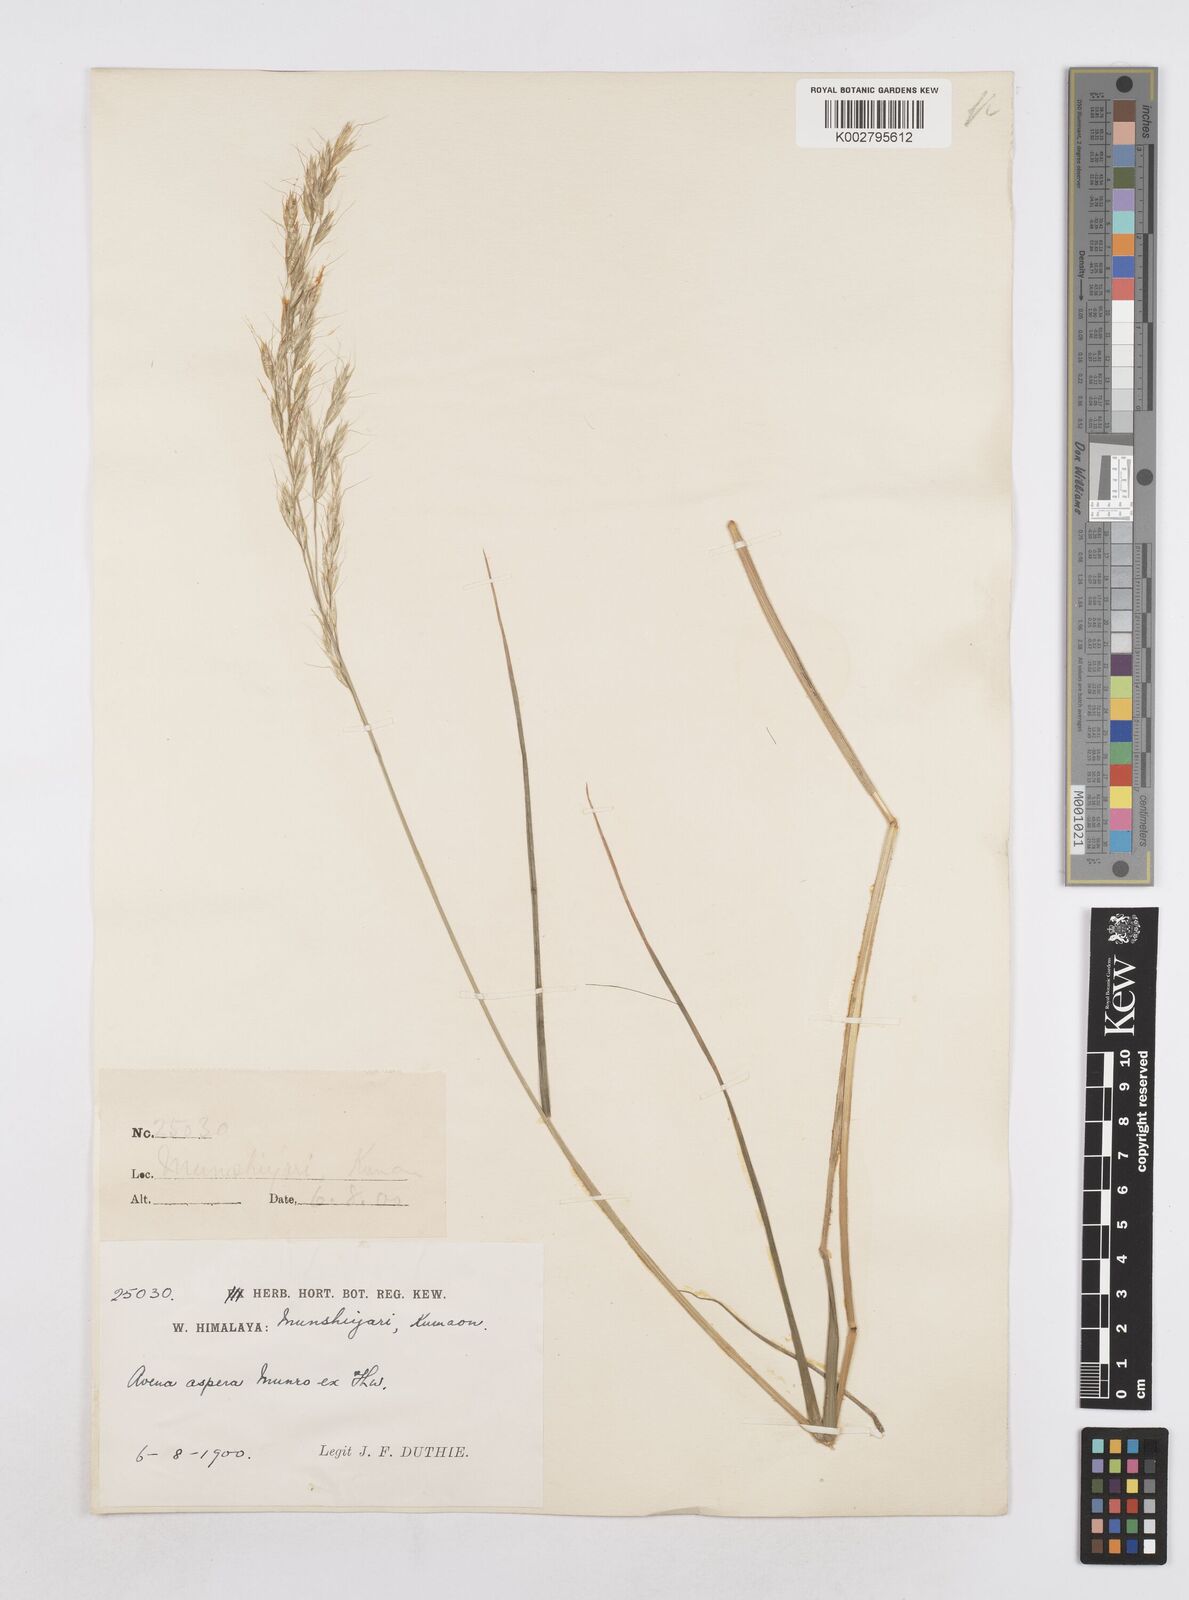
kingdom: Plantae
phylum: Tracheophyta
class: Liliopsida
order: Poales
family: Poaceae
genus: Helictotrichon
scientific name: Helictotrichon
